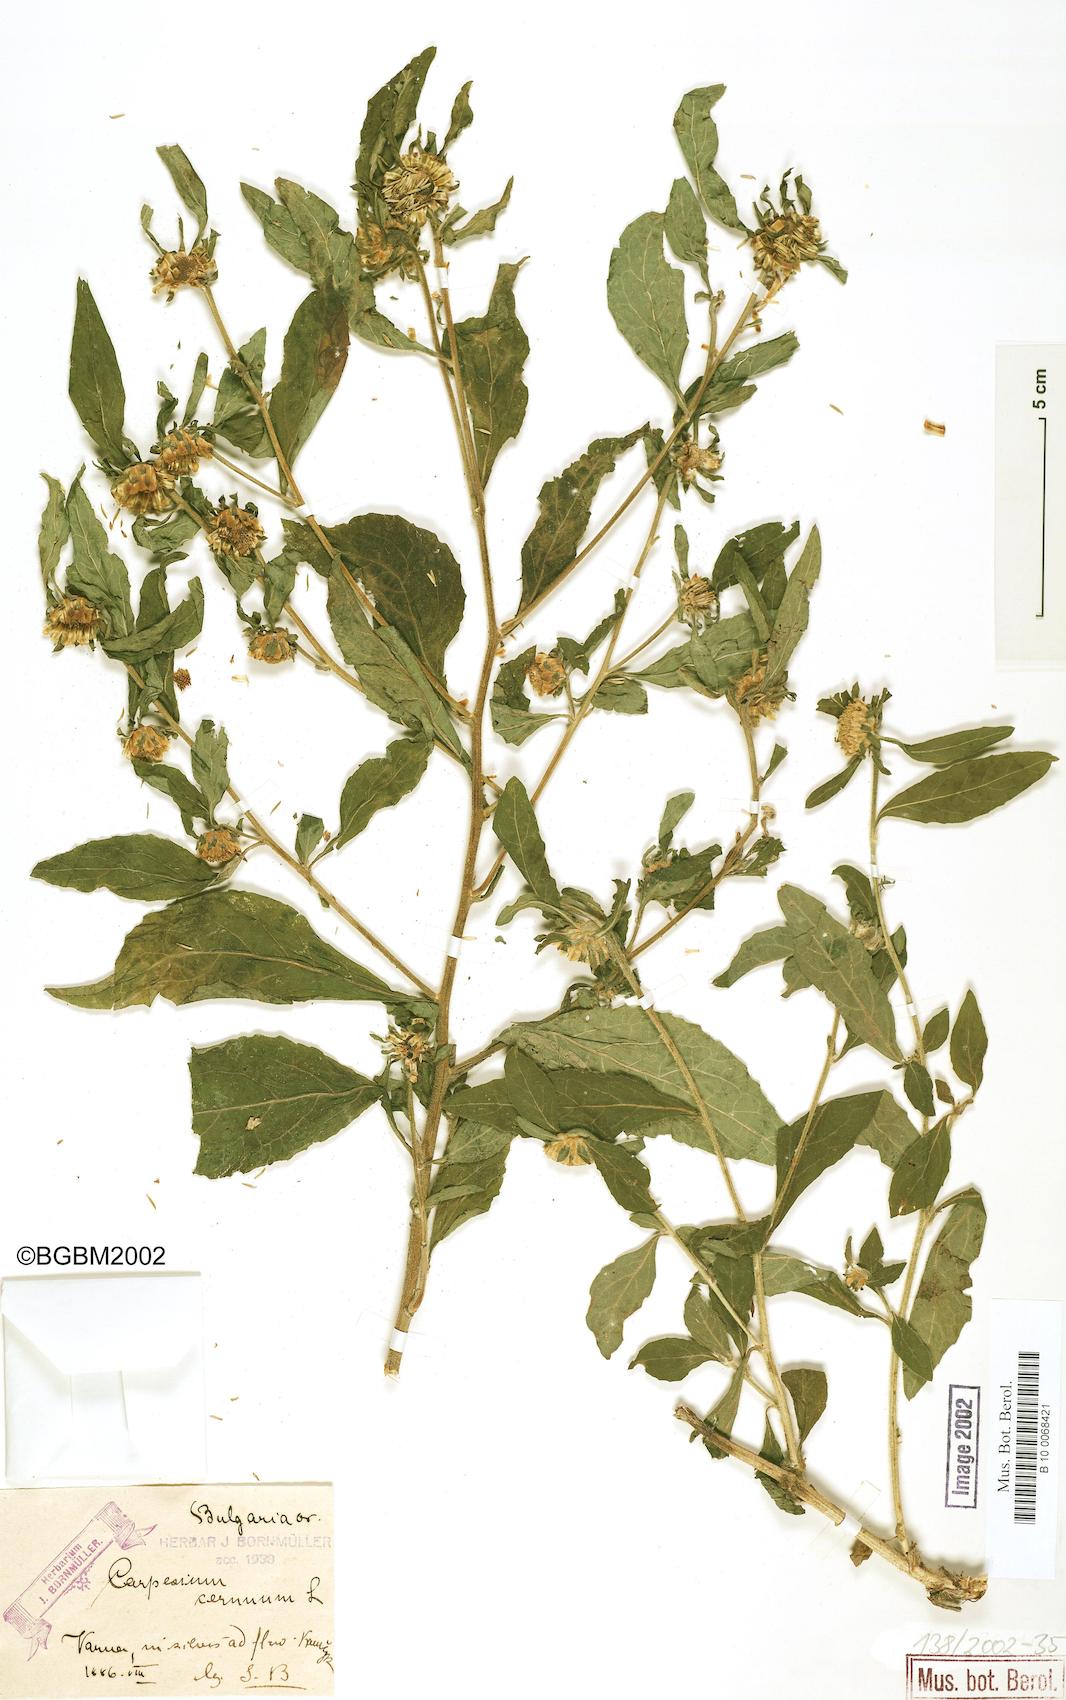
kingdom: Plantae
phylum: Tracheophyta
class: Magnoliopsida
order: Asterales
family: Asteraceae
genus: Carpesium
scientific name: Carpesium cernuum
